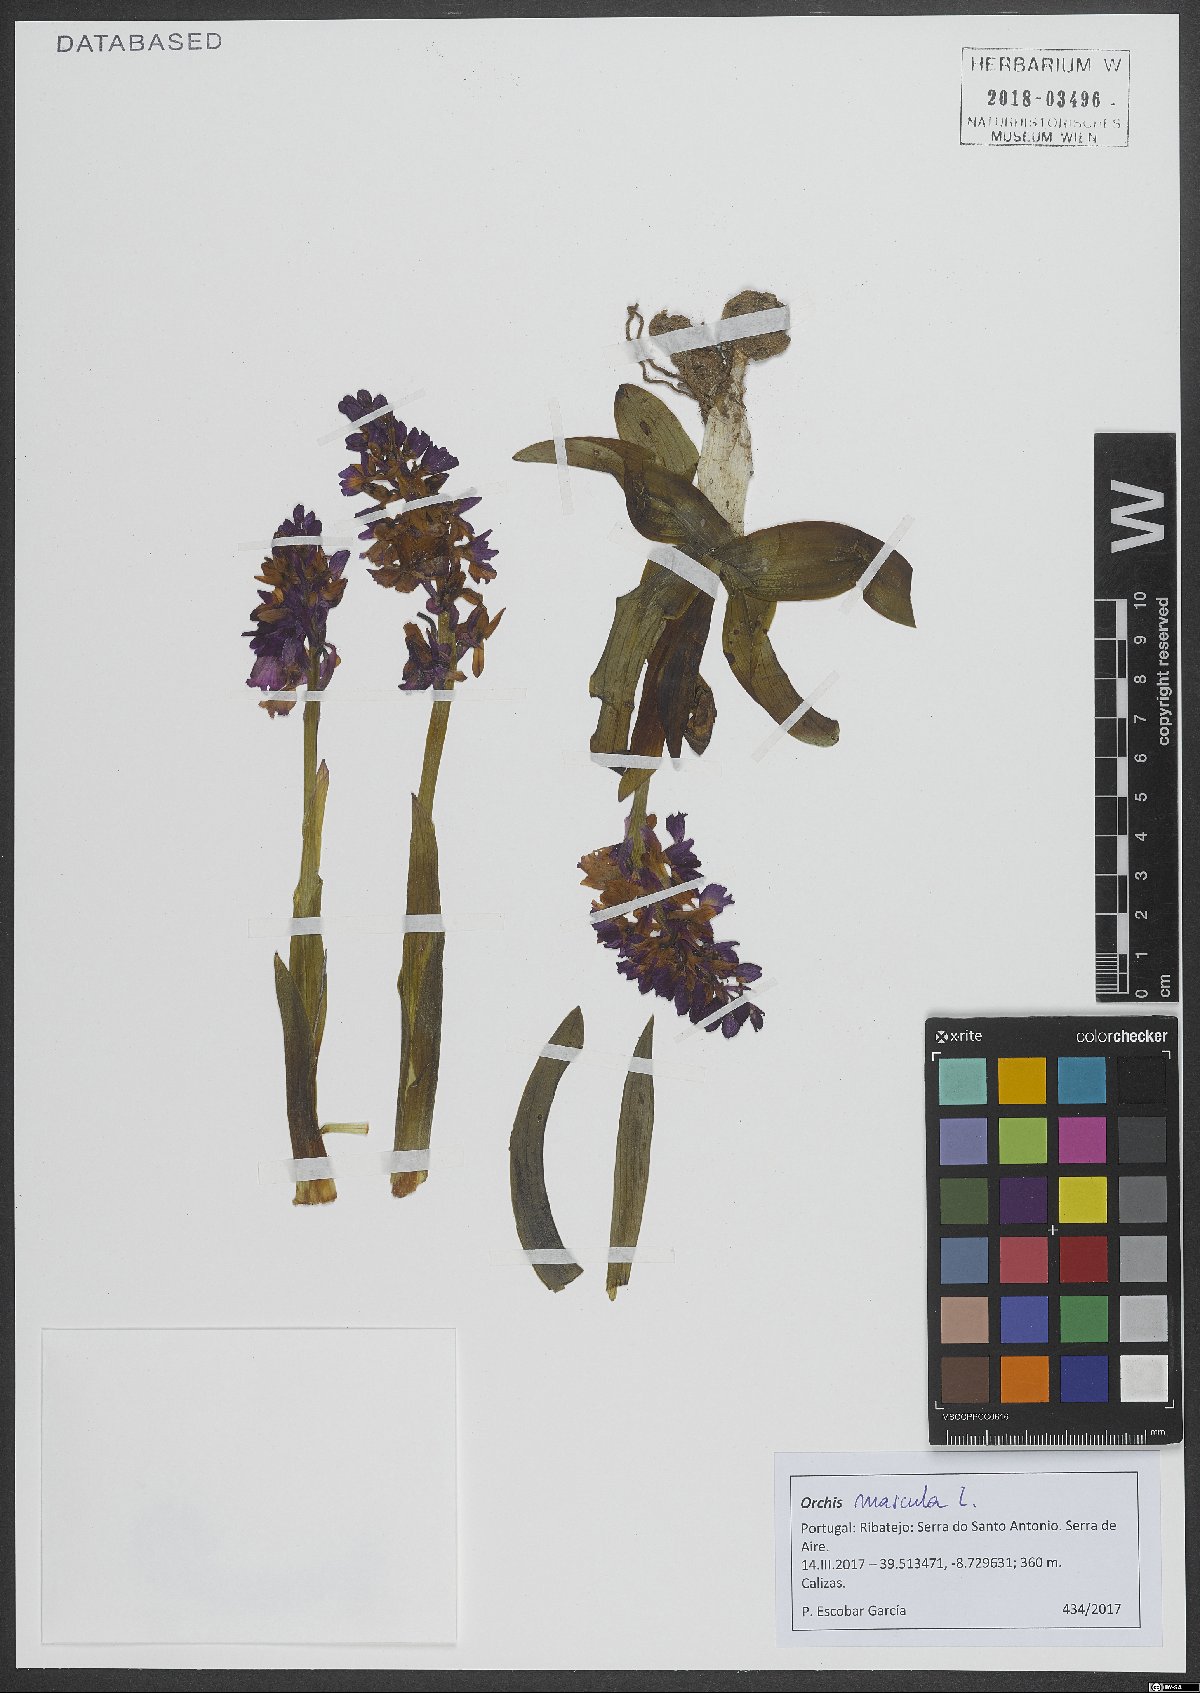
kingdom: Plantae
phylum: Tracheophyta
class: Liliopsida
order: Asparagales
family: Orchidaceae
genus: Orchis
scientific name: Orchis mascula
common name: Early-purple orchid
